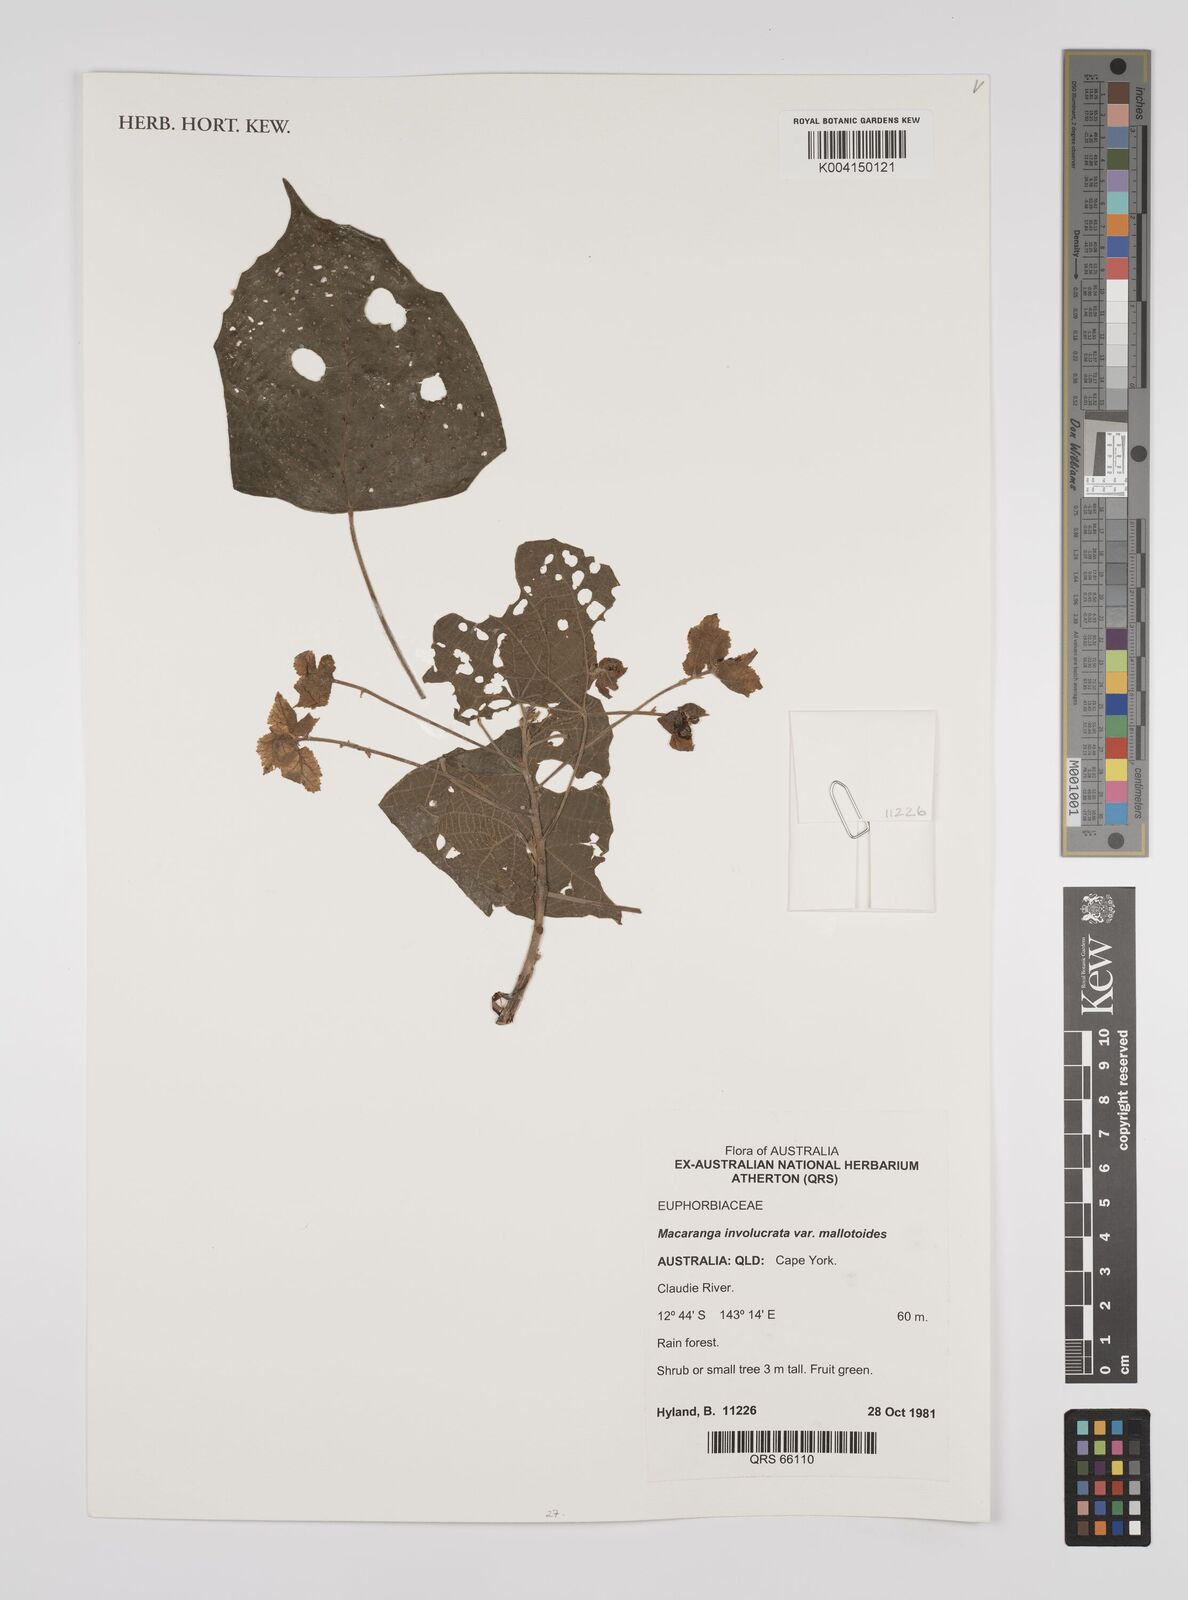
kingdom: Plantae
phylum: Tracheophyta
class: Magnoliopsida
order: Malpighiales
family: Euphorbiaceae
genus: Macaranga
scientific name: Macaranga involucrata
